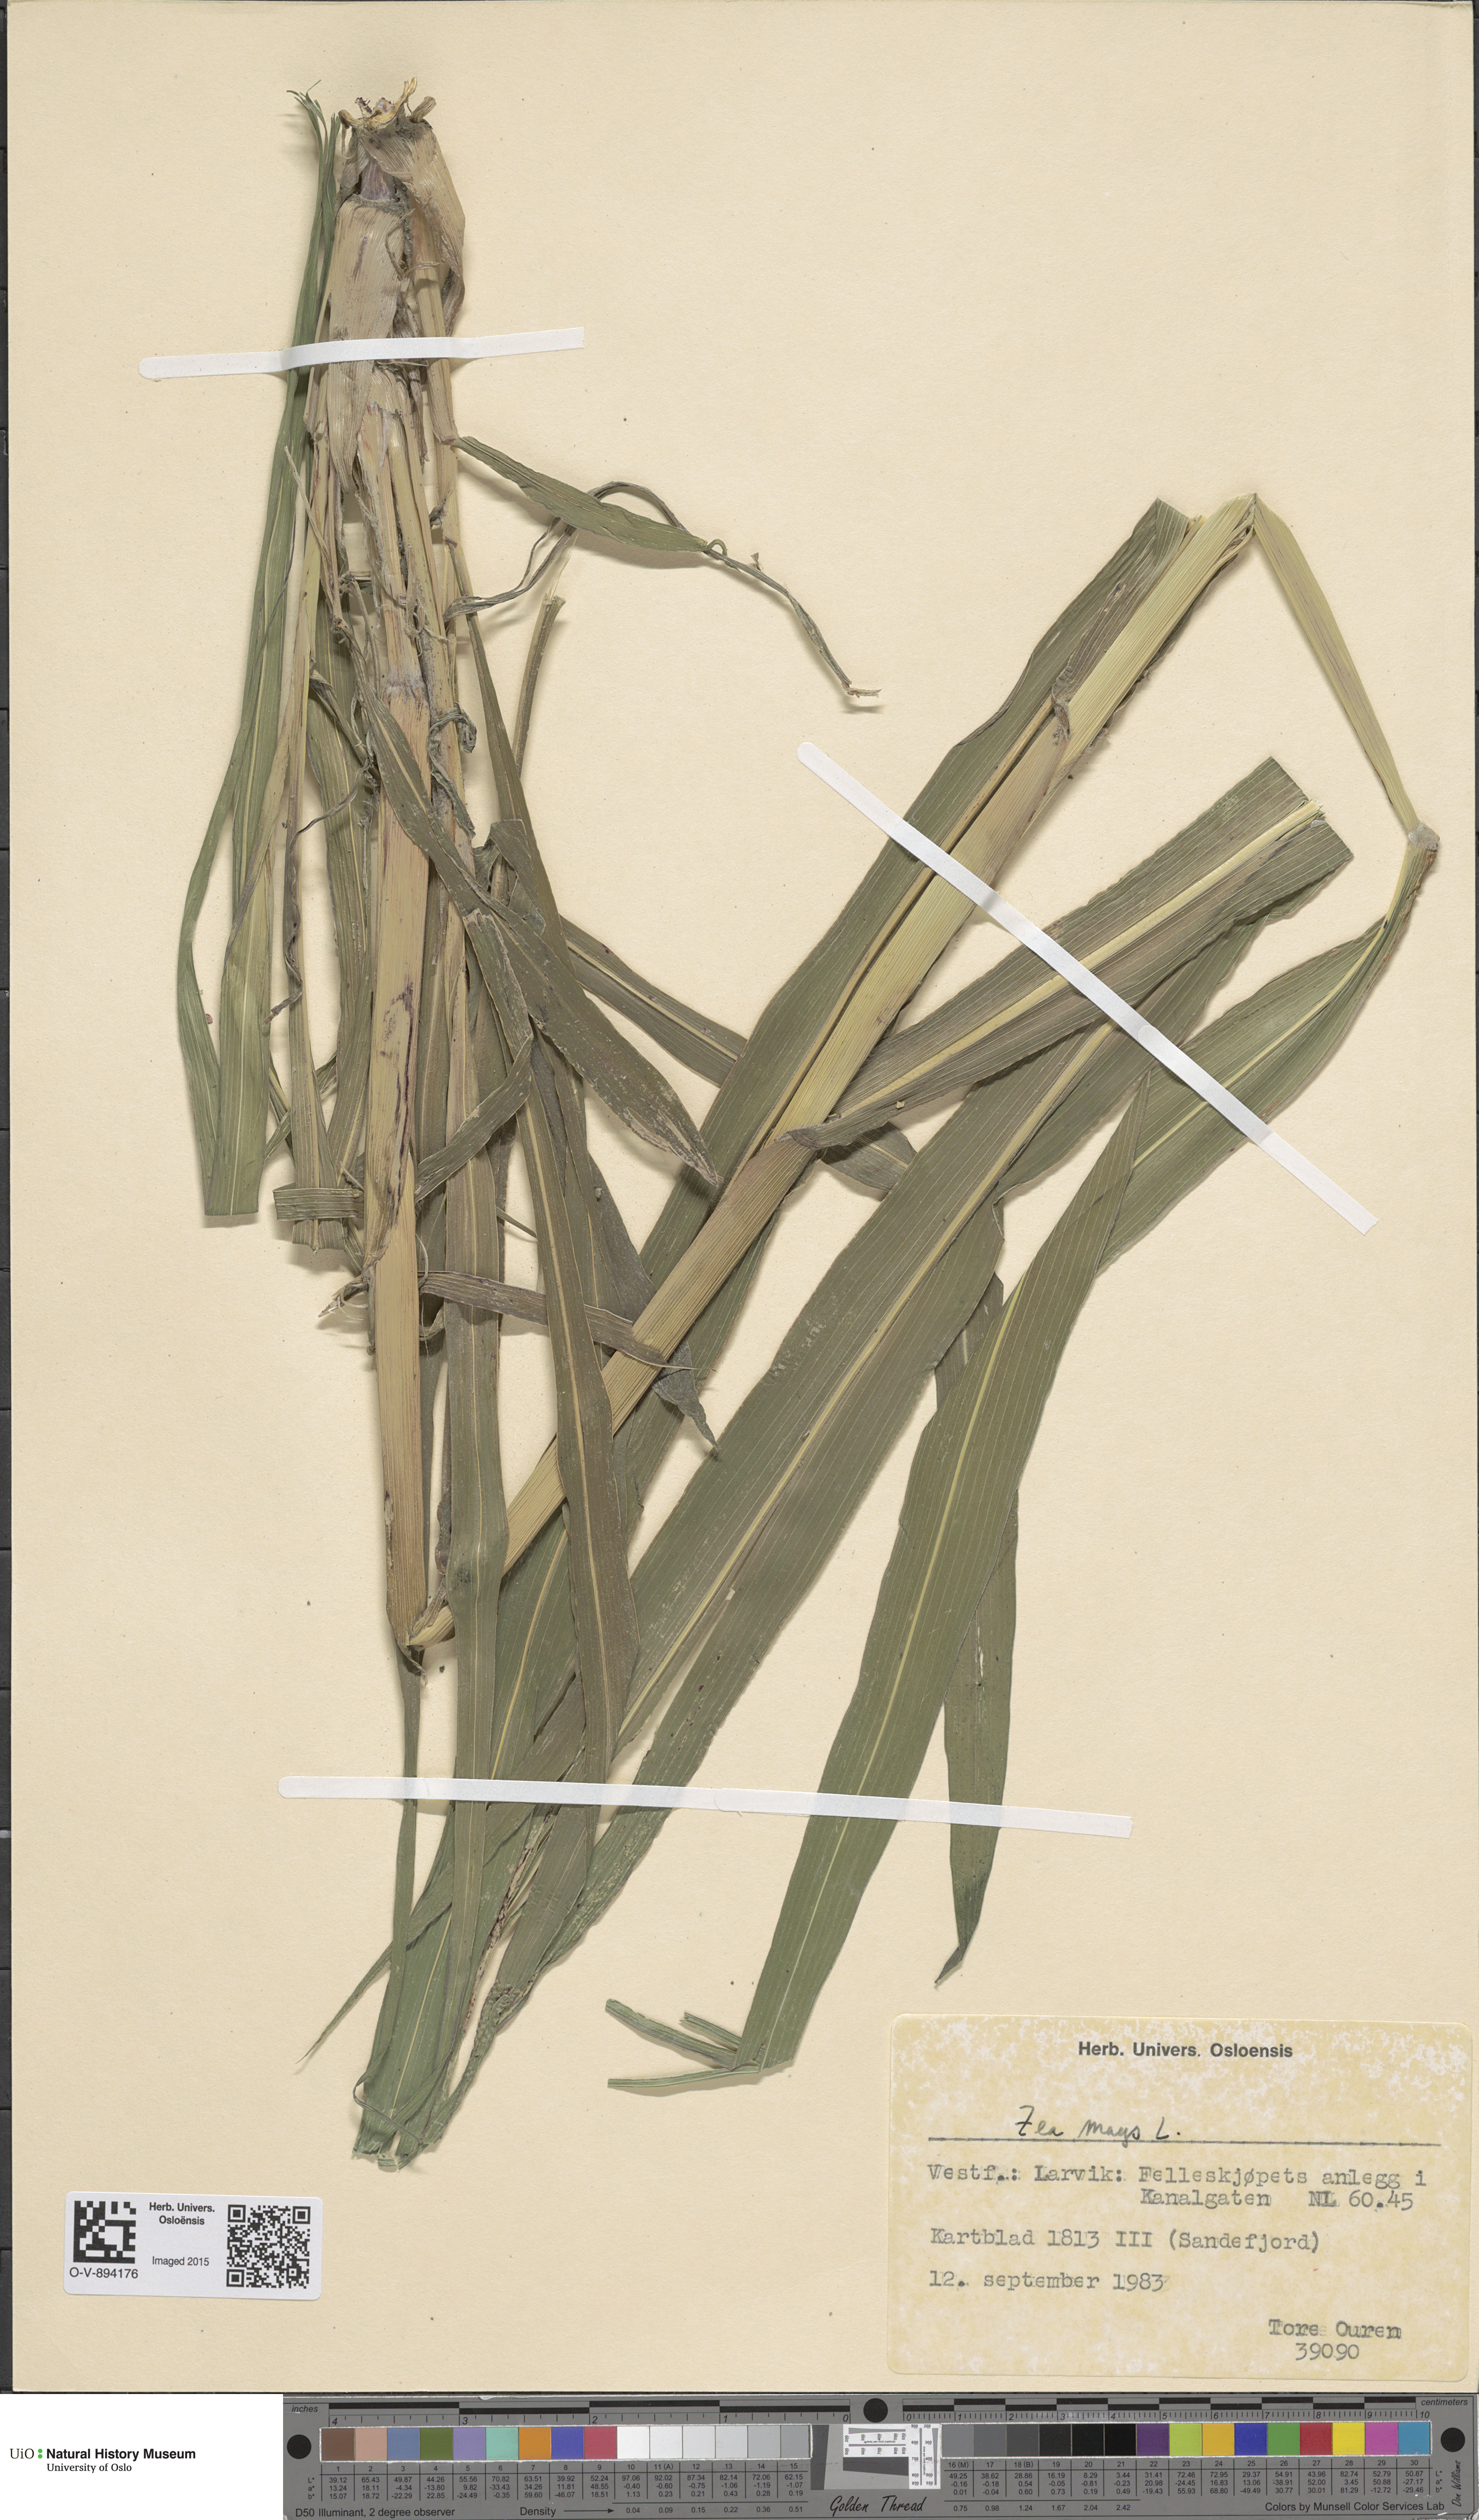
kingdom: Plantae
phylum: Tracheophyta
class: Liliopsida
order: Poales
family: Poaceae
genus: Zea
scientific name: Zea mays
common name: Maize
